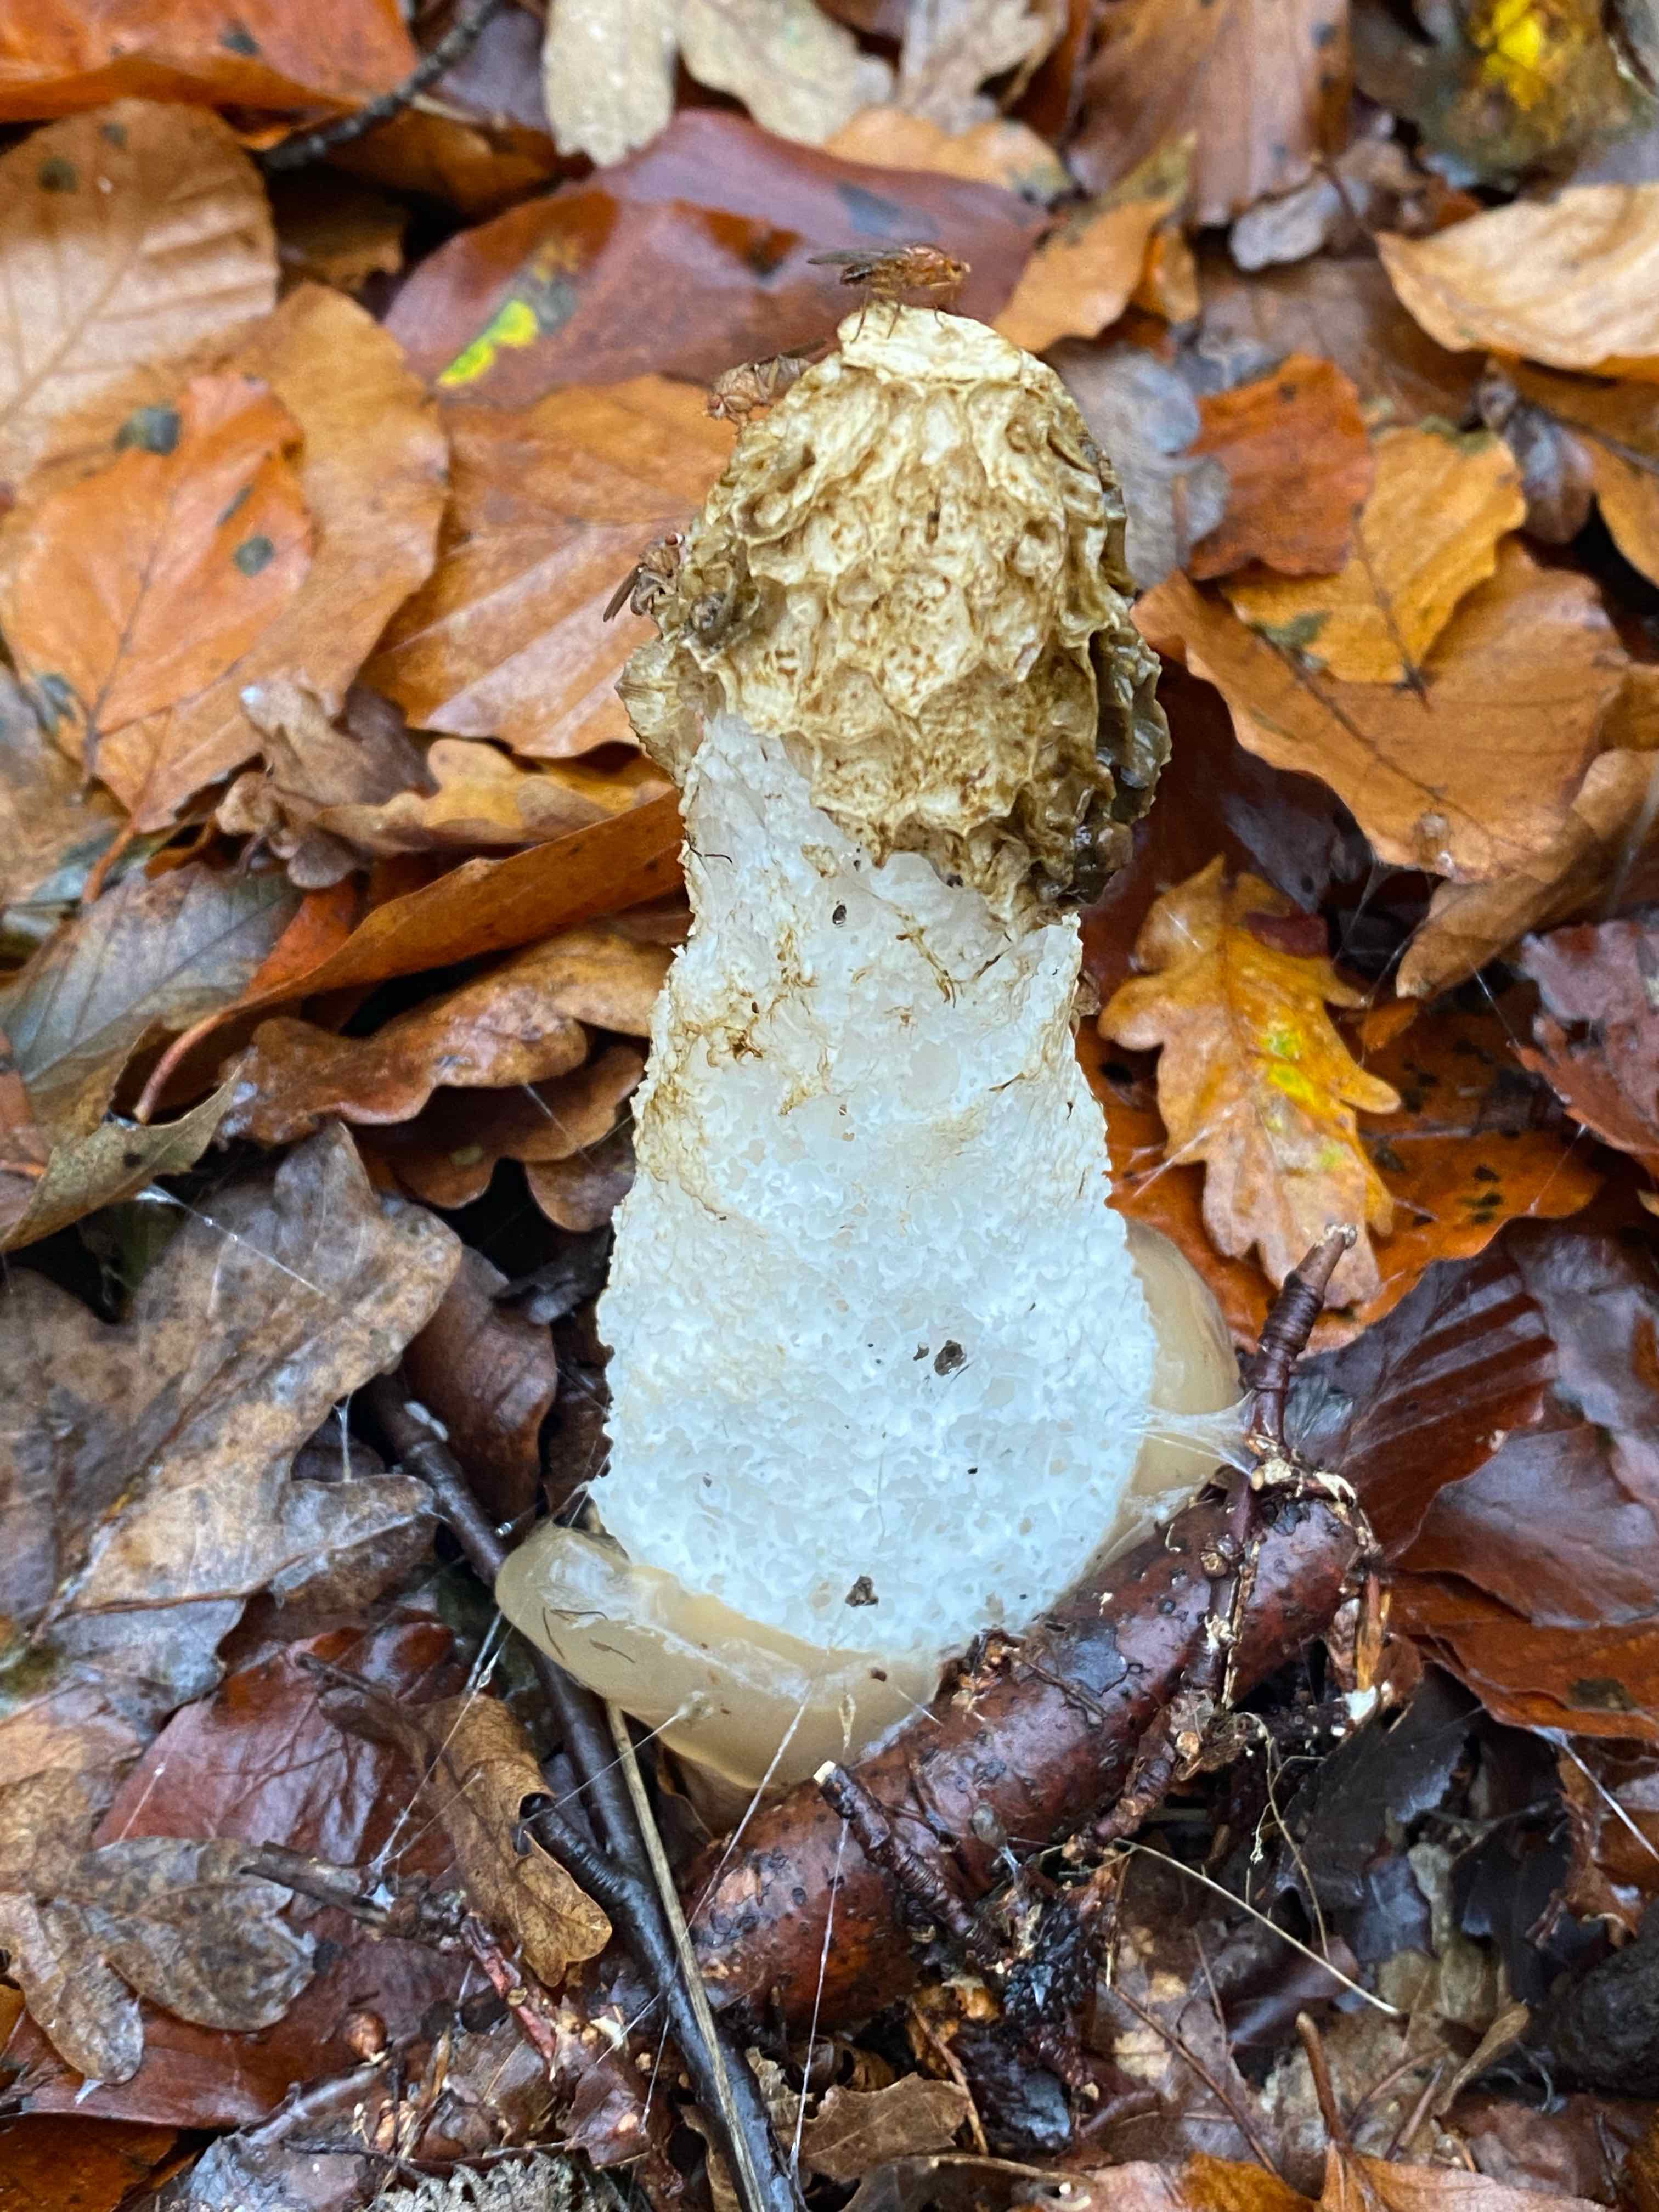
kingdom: Fungi
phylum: Basidiomycota
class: Agaricomycetes
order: Phallales
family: Phallaceae
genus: Phallus
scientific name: Phallus impudicus
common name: almindelig stinksvamp
